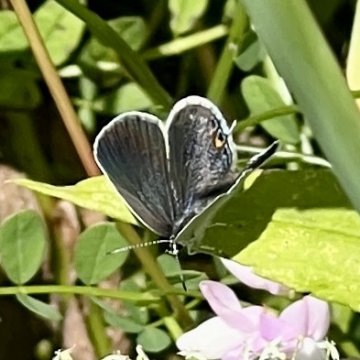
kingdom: Animalia
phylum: Arthropoda
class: Insecta
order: Lepidoptera
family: Lycaenidae
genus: Elkalyce
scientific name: Elkalyce comyntas
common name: Eastern Tailed-Blue
